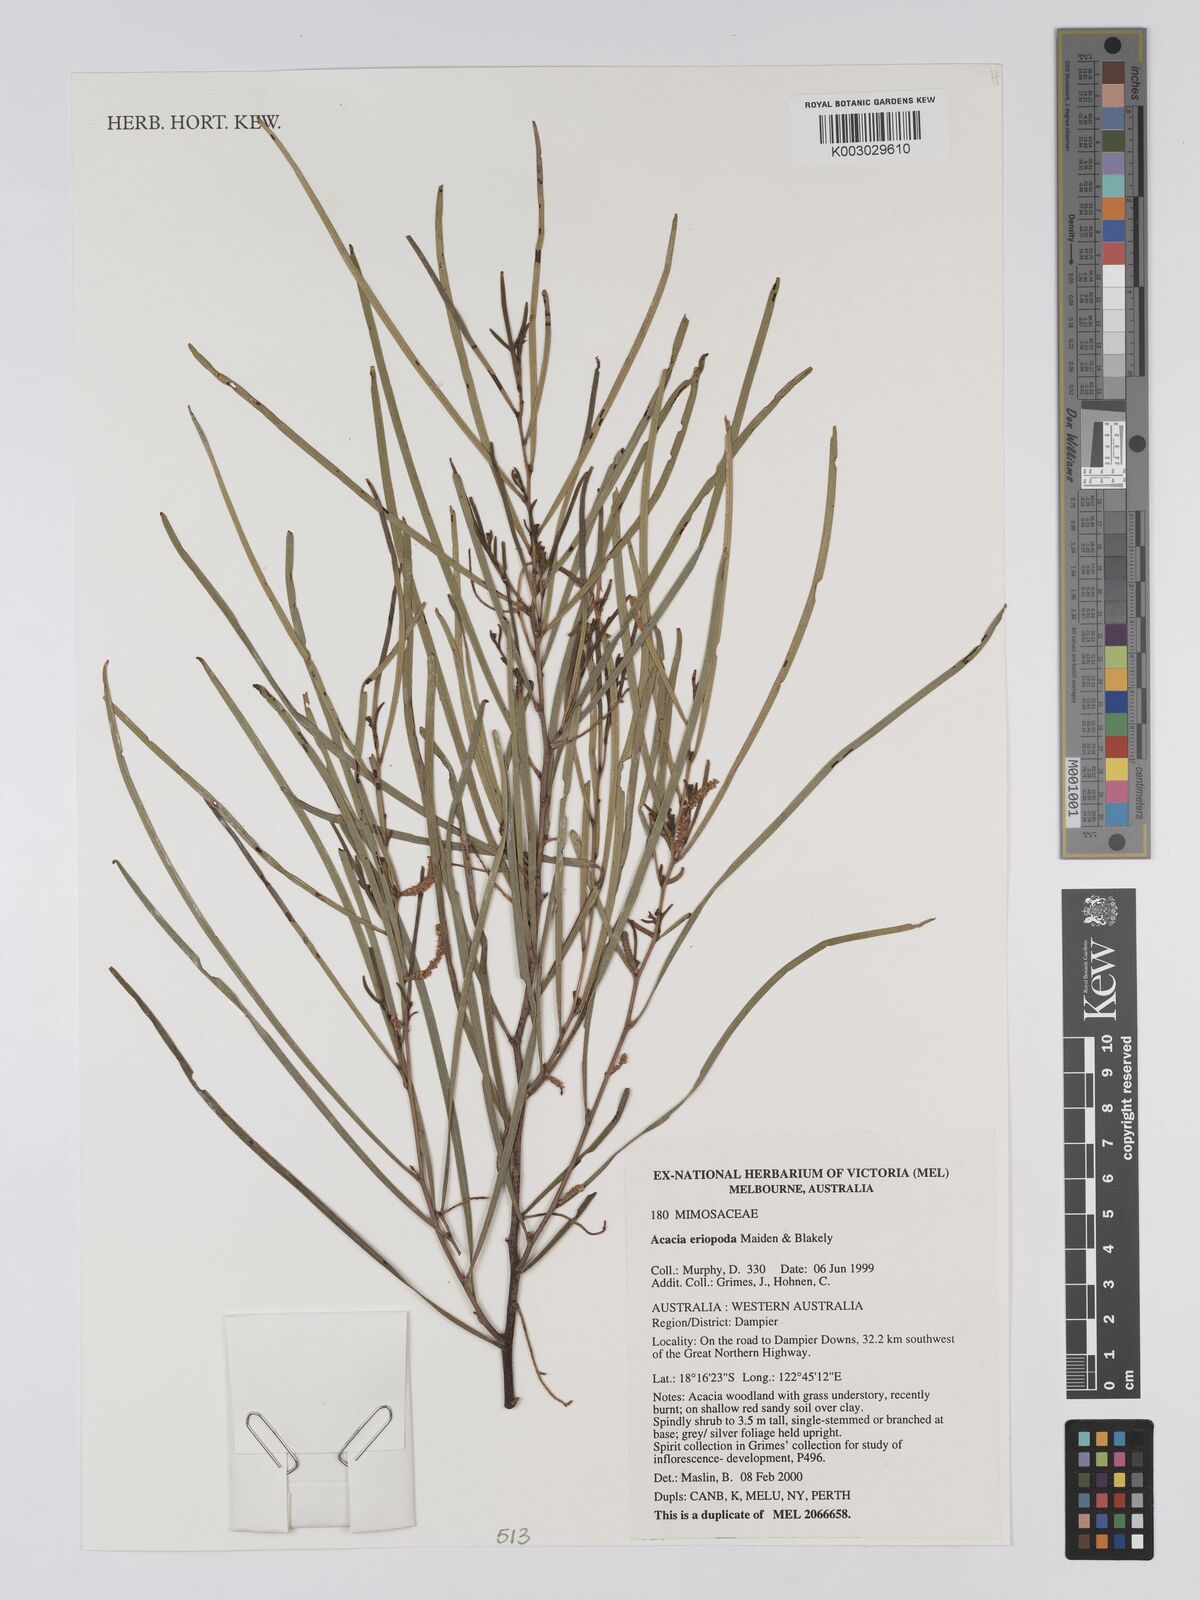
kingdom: Plantae
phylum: Tracheophyta
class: Magnoliopsida
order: Fabales
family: Fabaceae
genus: Acacia
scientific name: Acacia eriopoda
